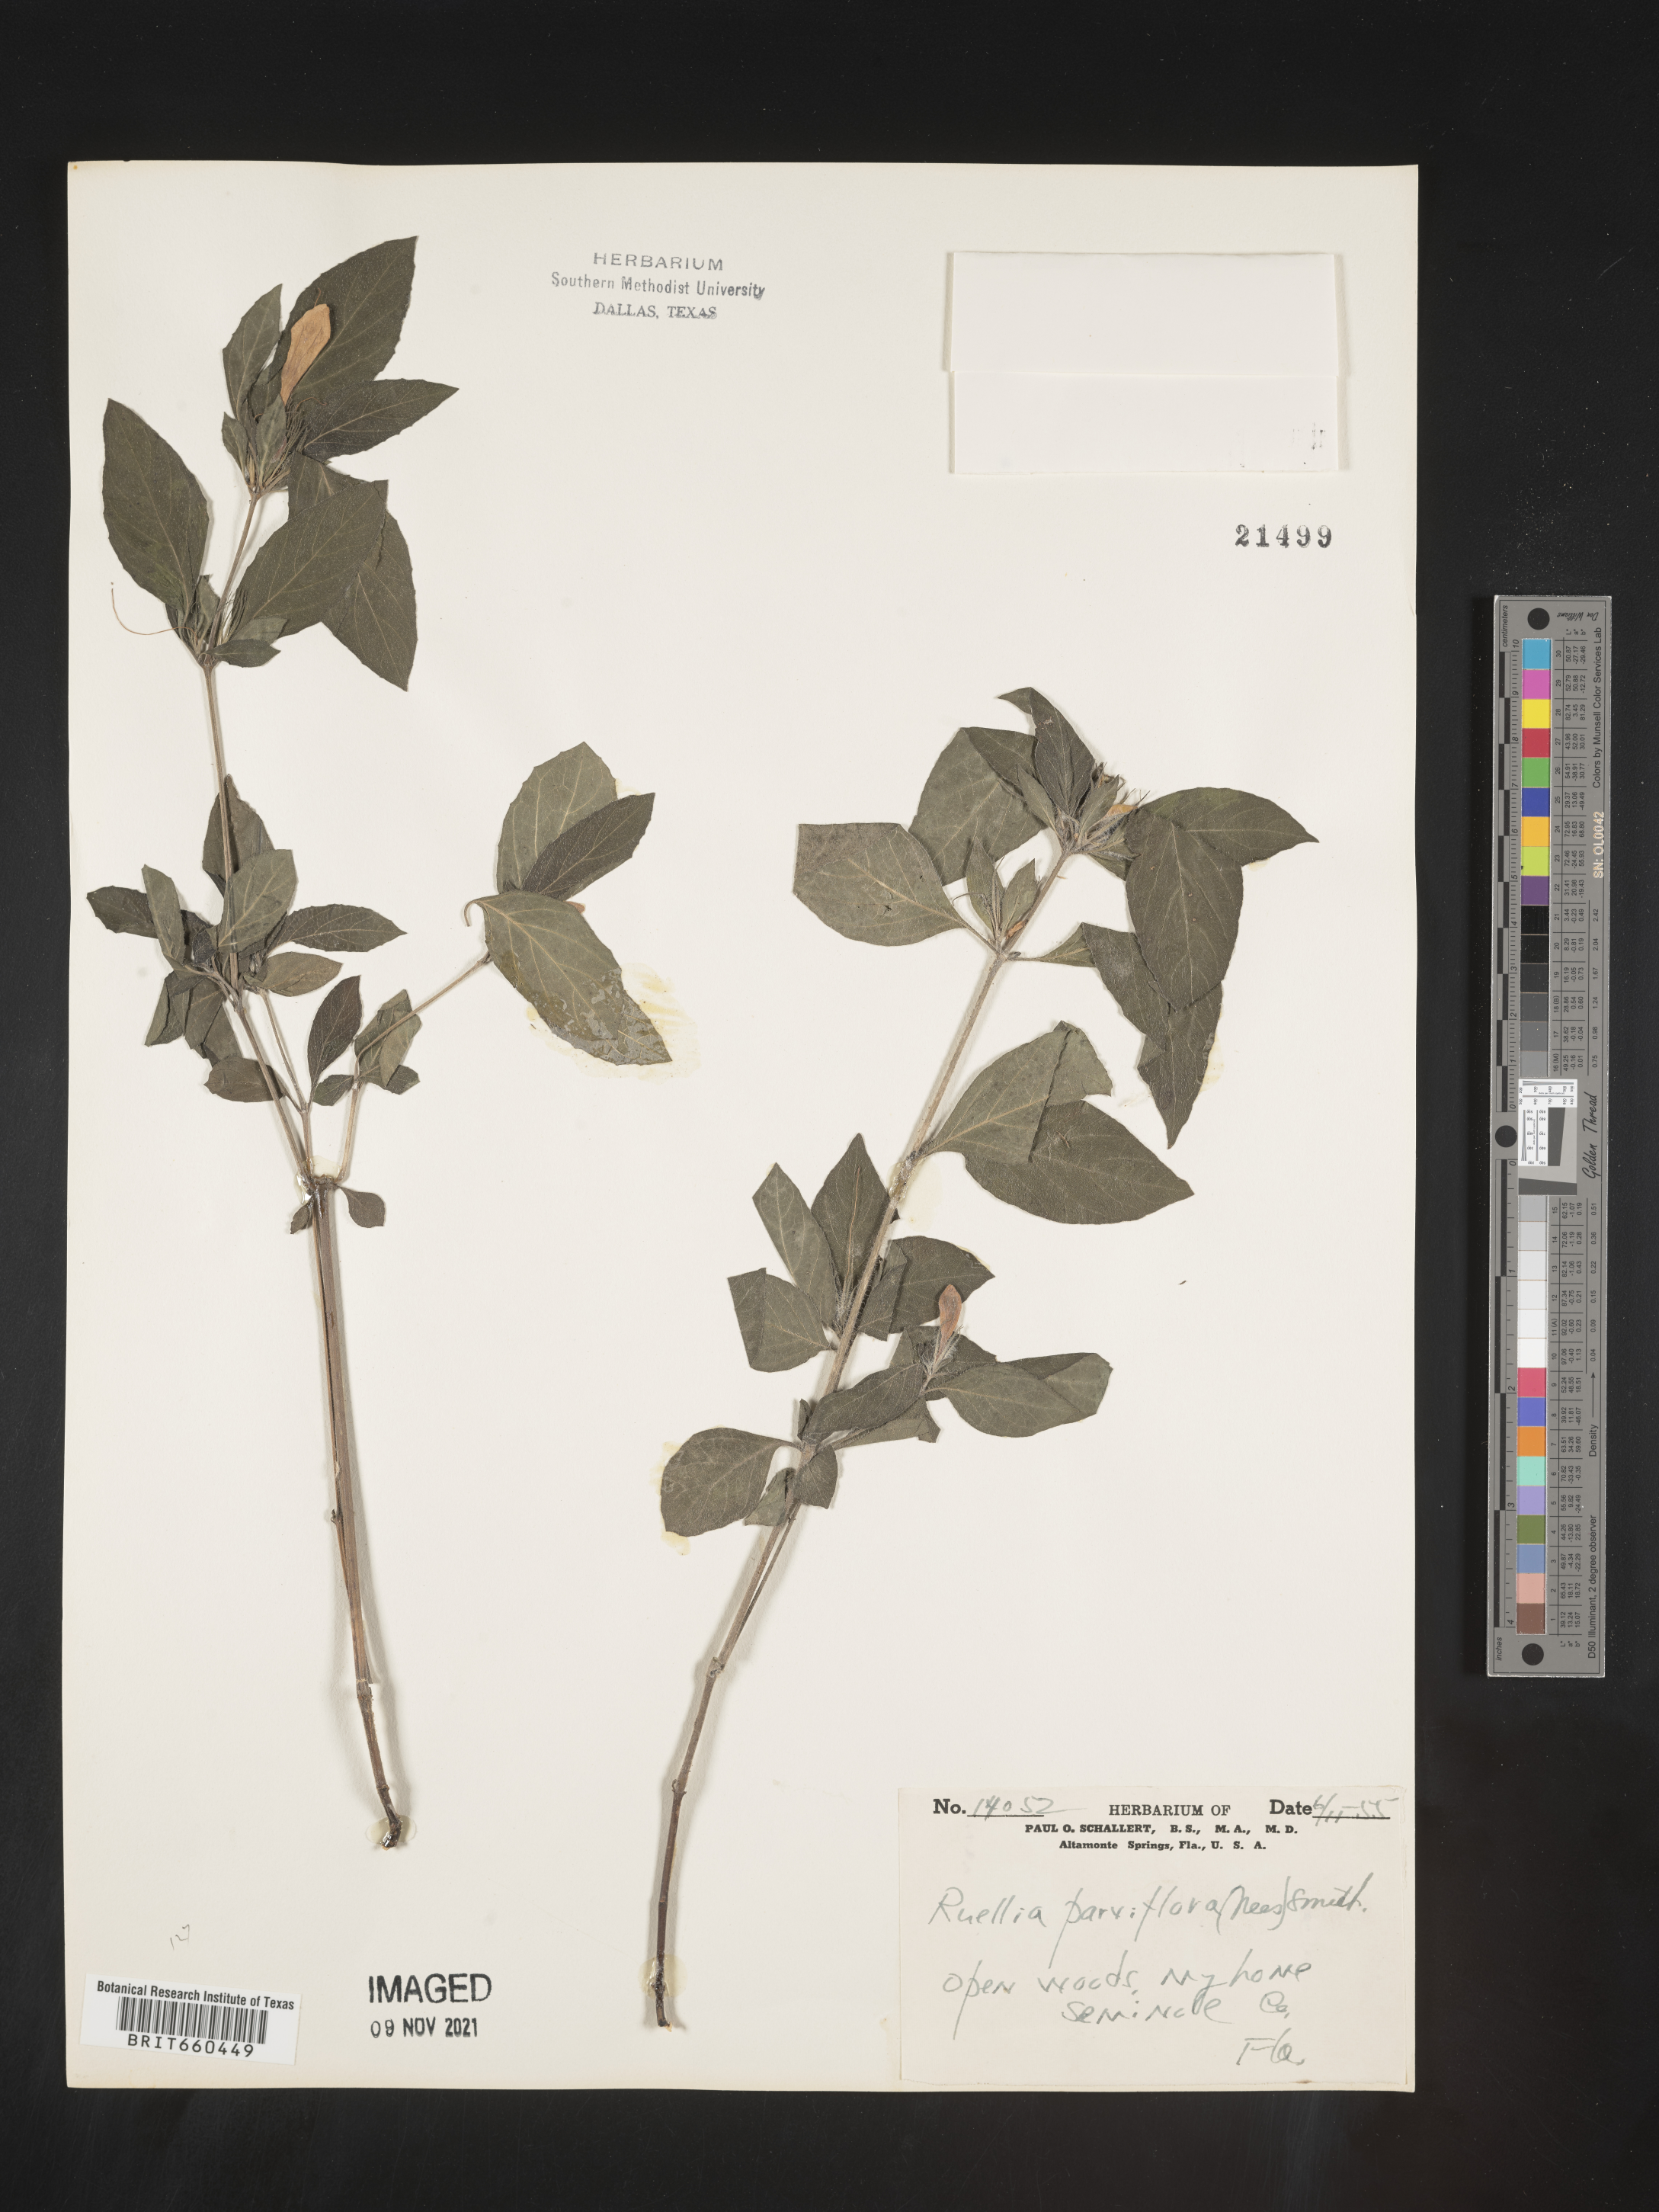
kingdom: Plantae
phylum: Tracheophyta
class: Magnoliopsida
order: Lamiales
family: Acanthaceae
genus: Ruellia
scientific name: Ruellia simplex
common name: Softseed wild petunia
